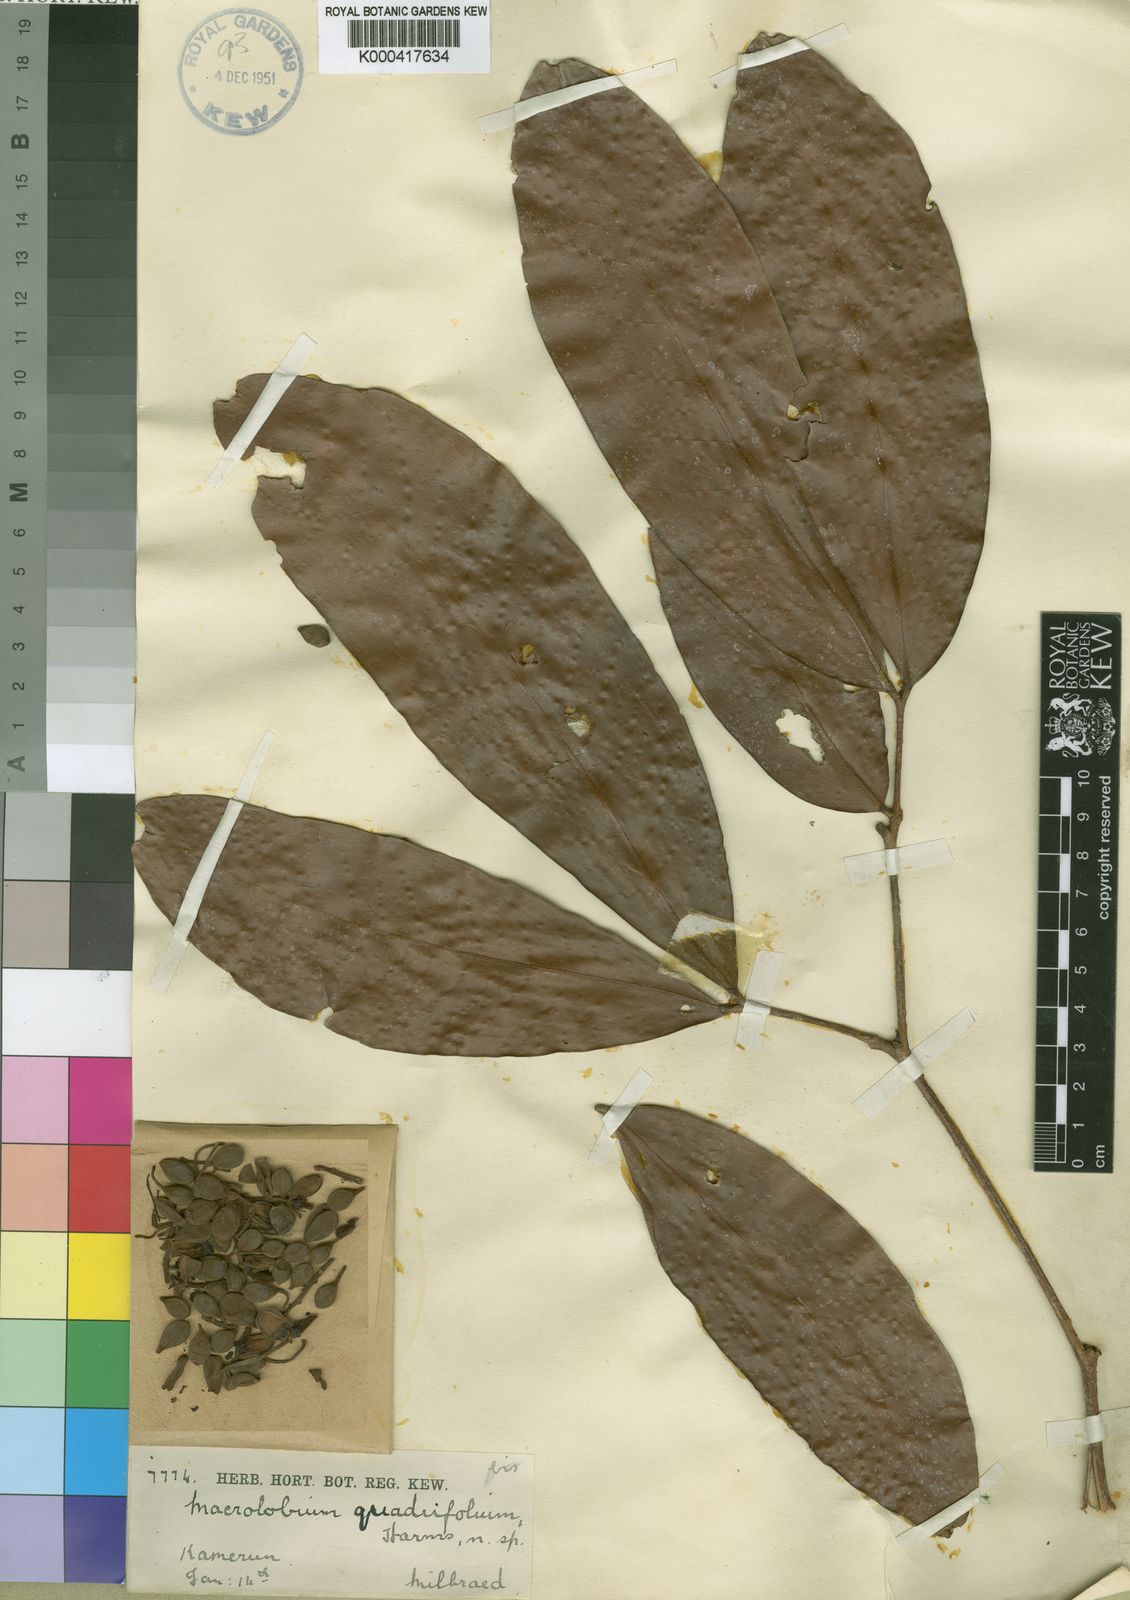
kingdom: Plantae
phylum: Tracheophyta
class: Magnoliopsida
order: Fabales
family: Fabaceae
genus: Gilbertiodendron
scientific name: Gilbertiodendron
